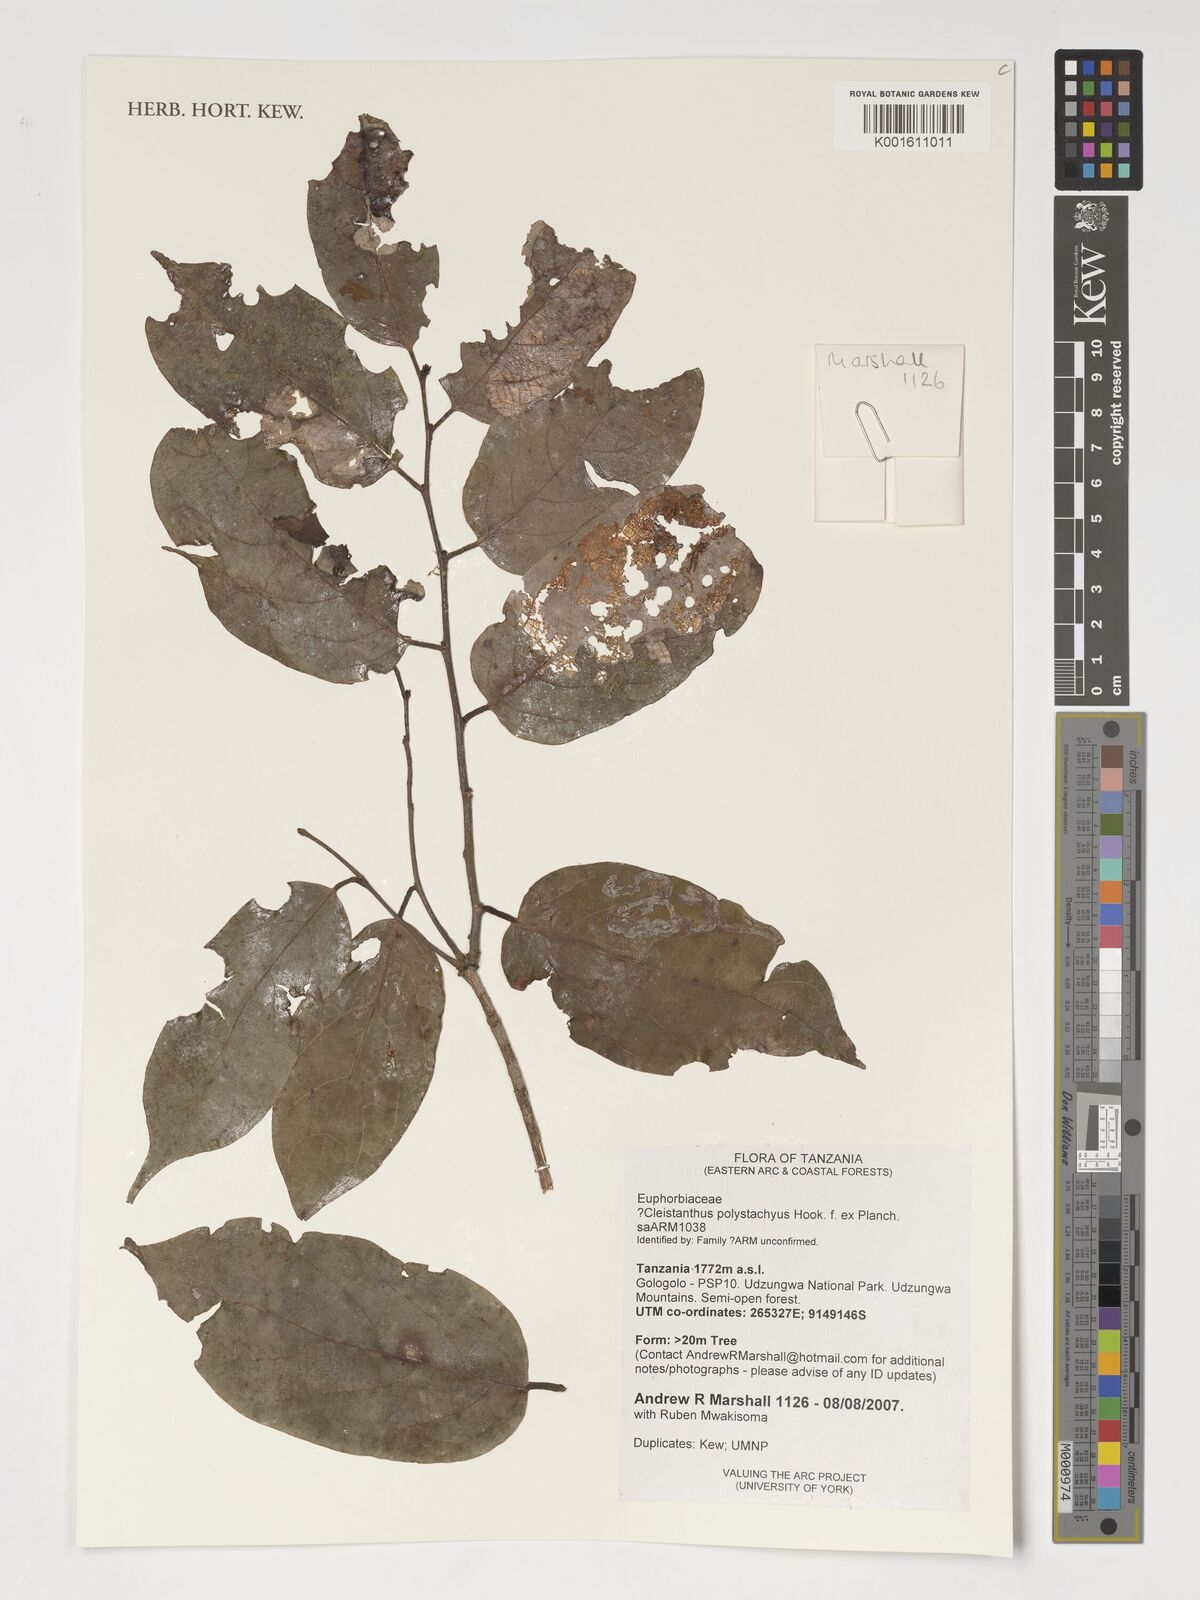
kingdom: Plantae
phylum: Tracheophyta
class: Magnoliopsida
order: Malpighiales
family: Phyllanthaceae
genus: Cleistanthus
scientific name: Cleistanthus polystachyus
